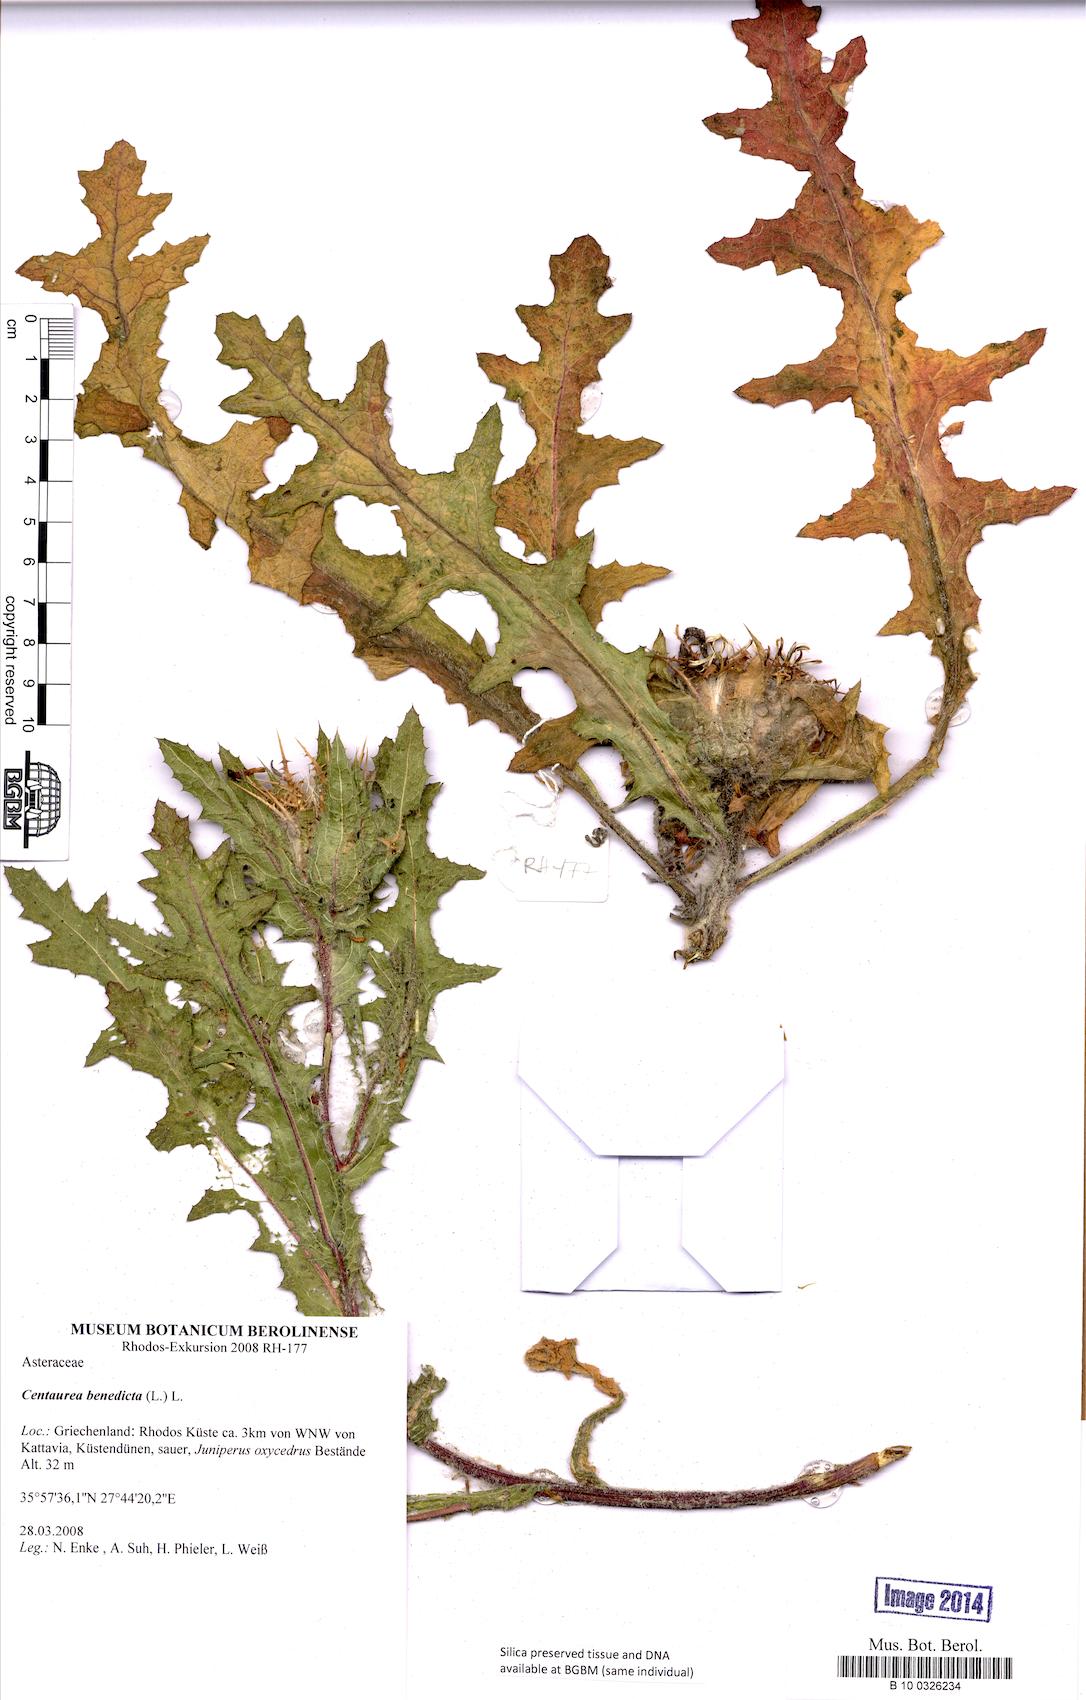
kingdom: Plantae
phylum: Tracheophyta
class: Magnoliopsida
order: Asterales
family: Asteraceae
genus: Centaurea
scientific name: Centaurea benedicta
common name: Blessed thistle
